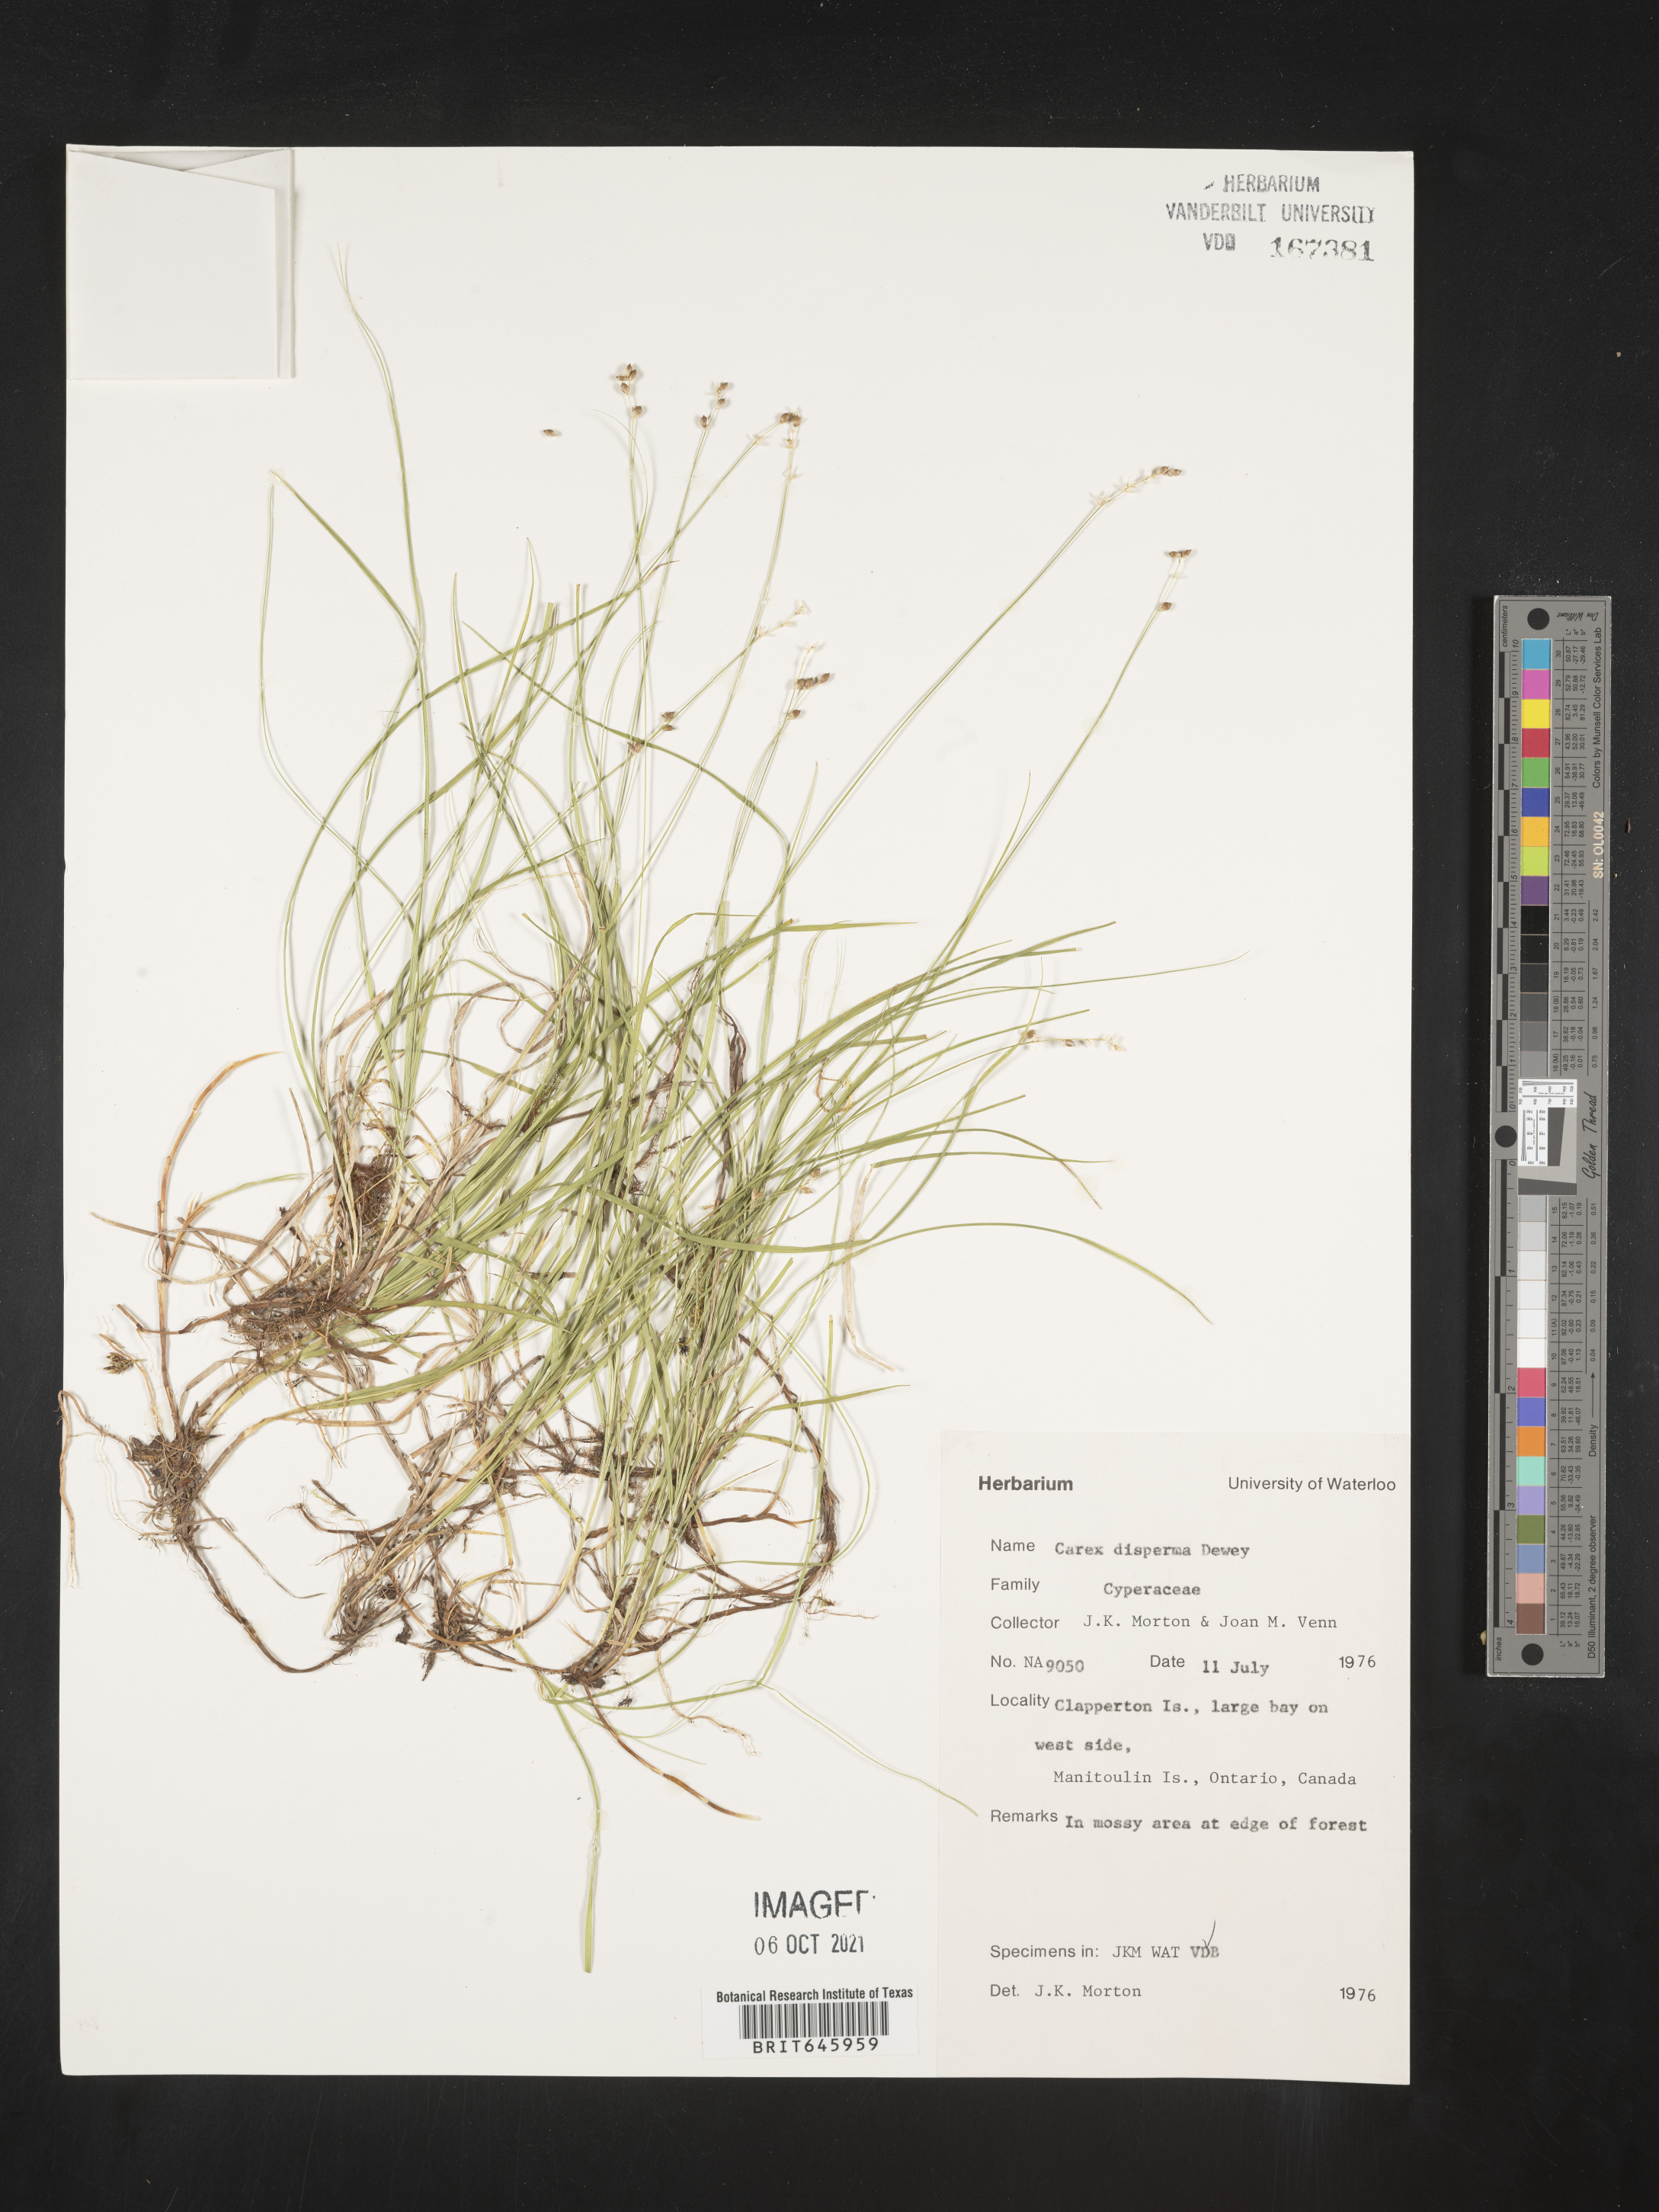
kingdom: Plantae
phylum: Tracheophyta
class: Liliopsida
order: Poales
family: Cyperaceae
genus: Carex
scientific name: Carex disperma
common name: Short-leaved sedge
